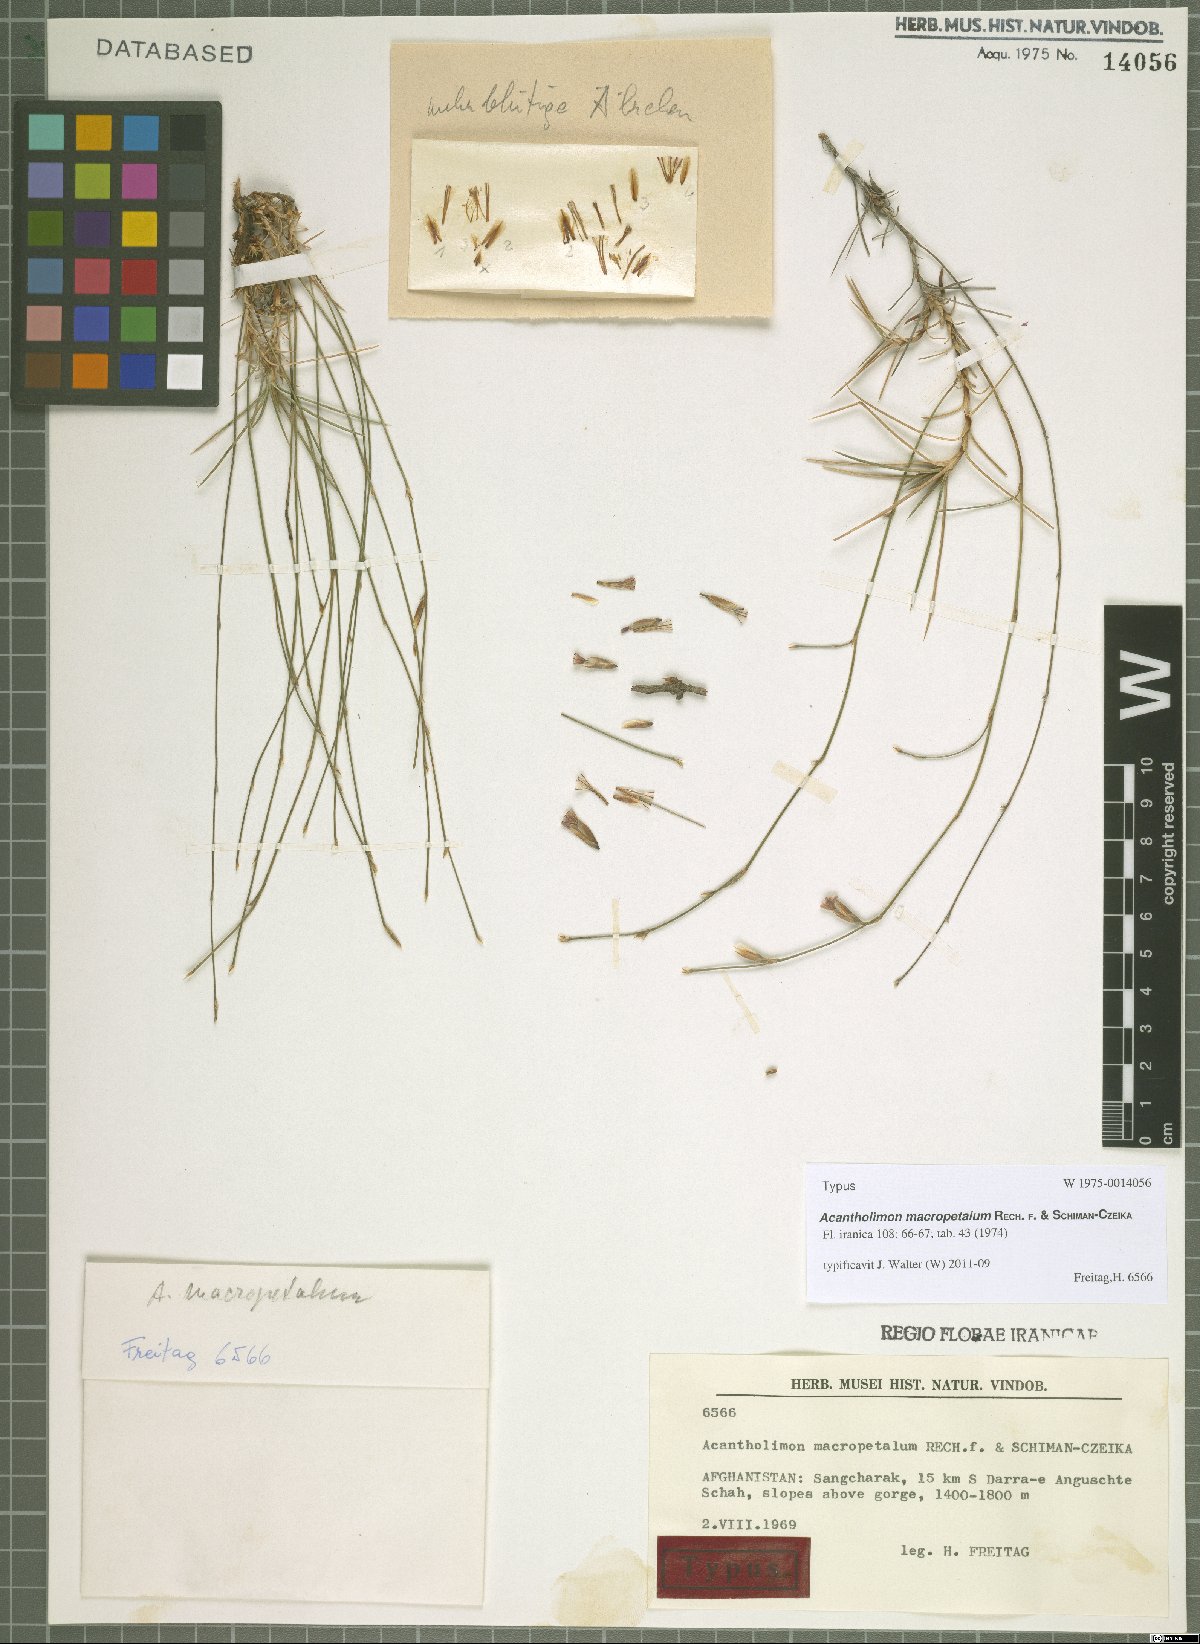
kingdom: Plantae
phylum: Tracheophyta
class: Magnoliopsida
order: Caryophyllales
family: Plumbaginaceae
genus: Acantholimon
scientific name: Acantholimon macropetalum
